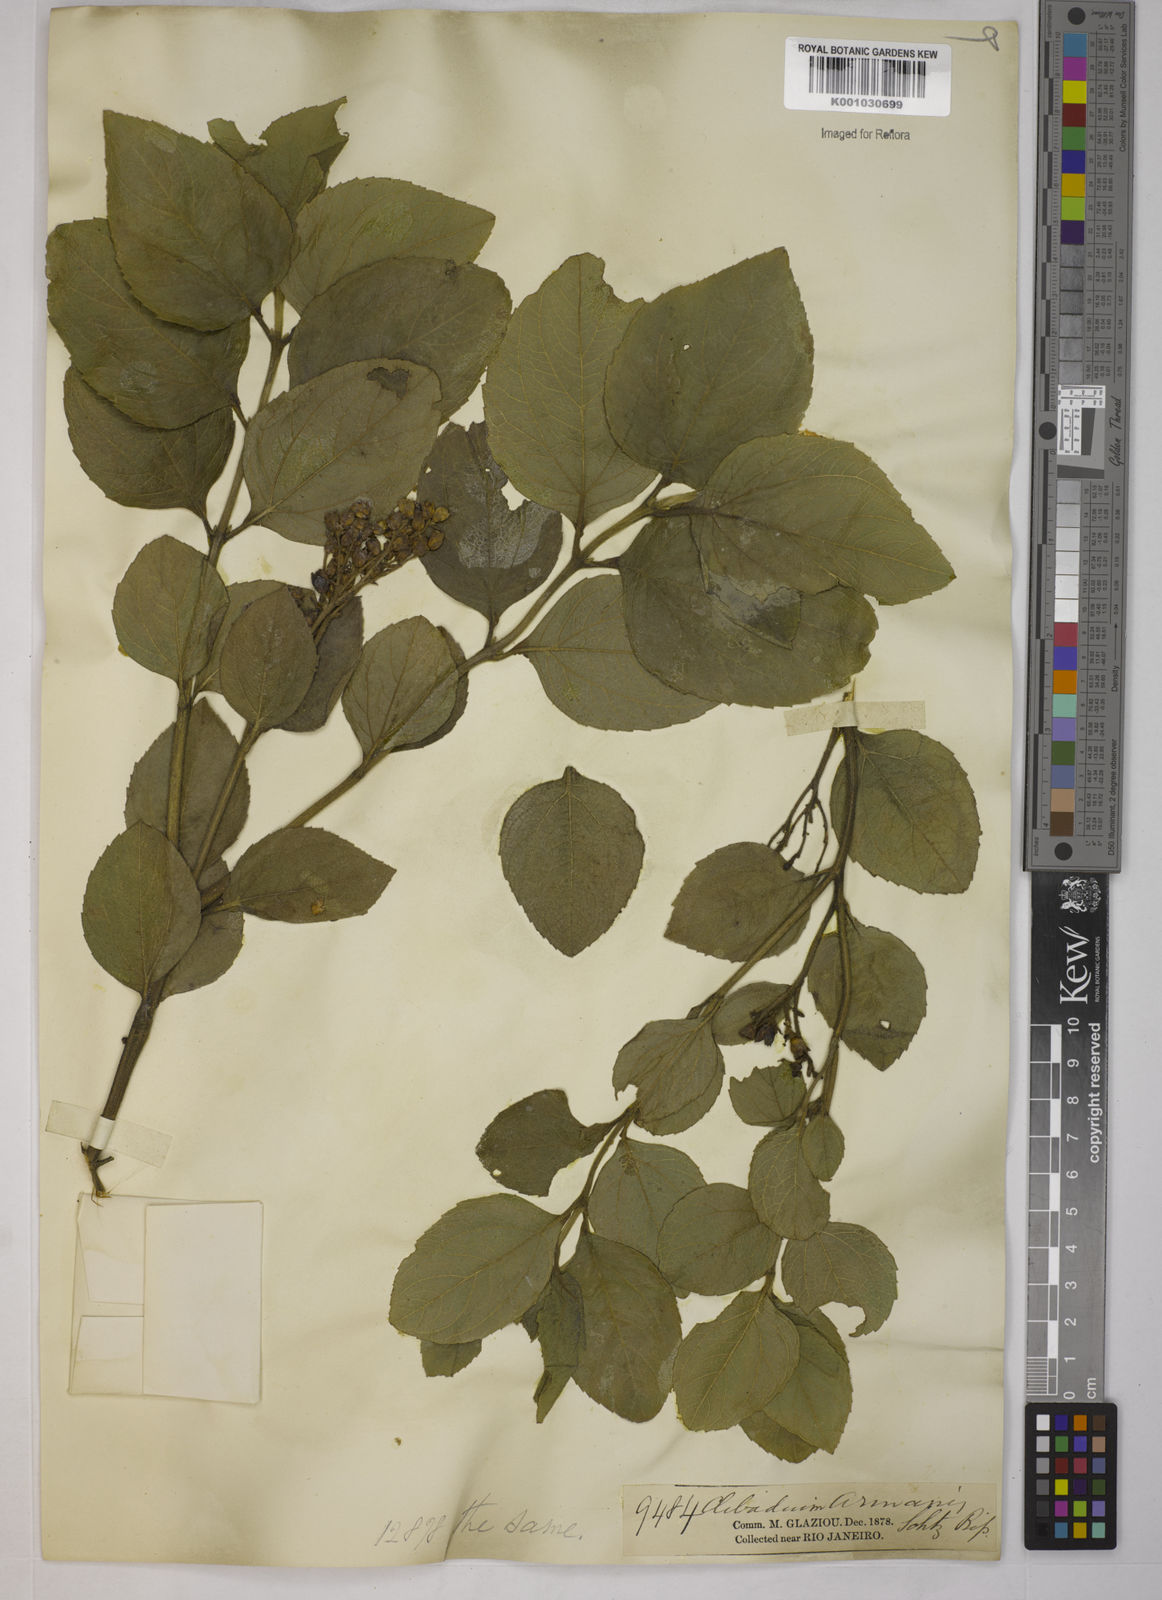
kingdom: Plantae
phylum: Tracheophyta
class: Magnoliopsida
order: Asterales
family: Asteraceae
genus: Clibadium
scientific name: Clibadium armanii
